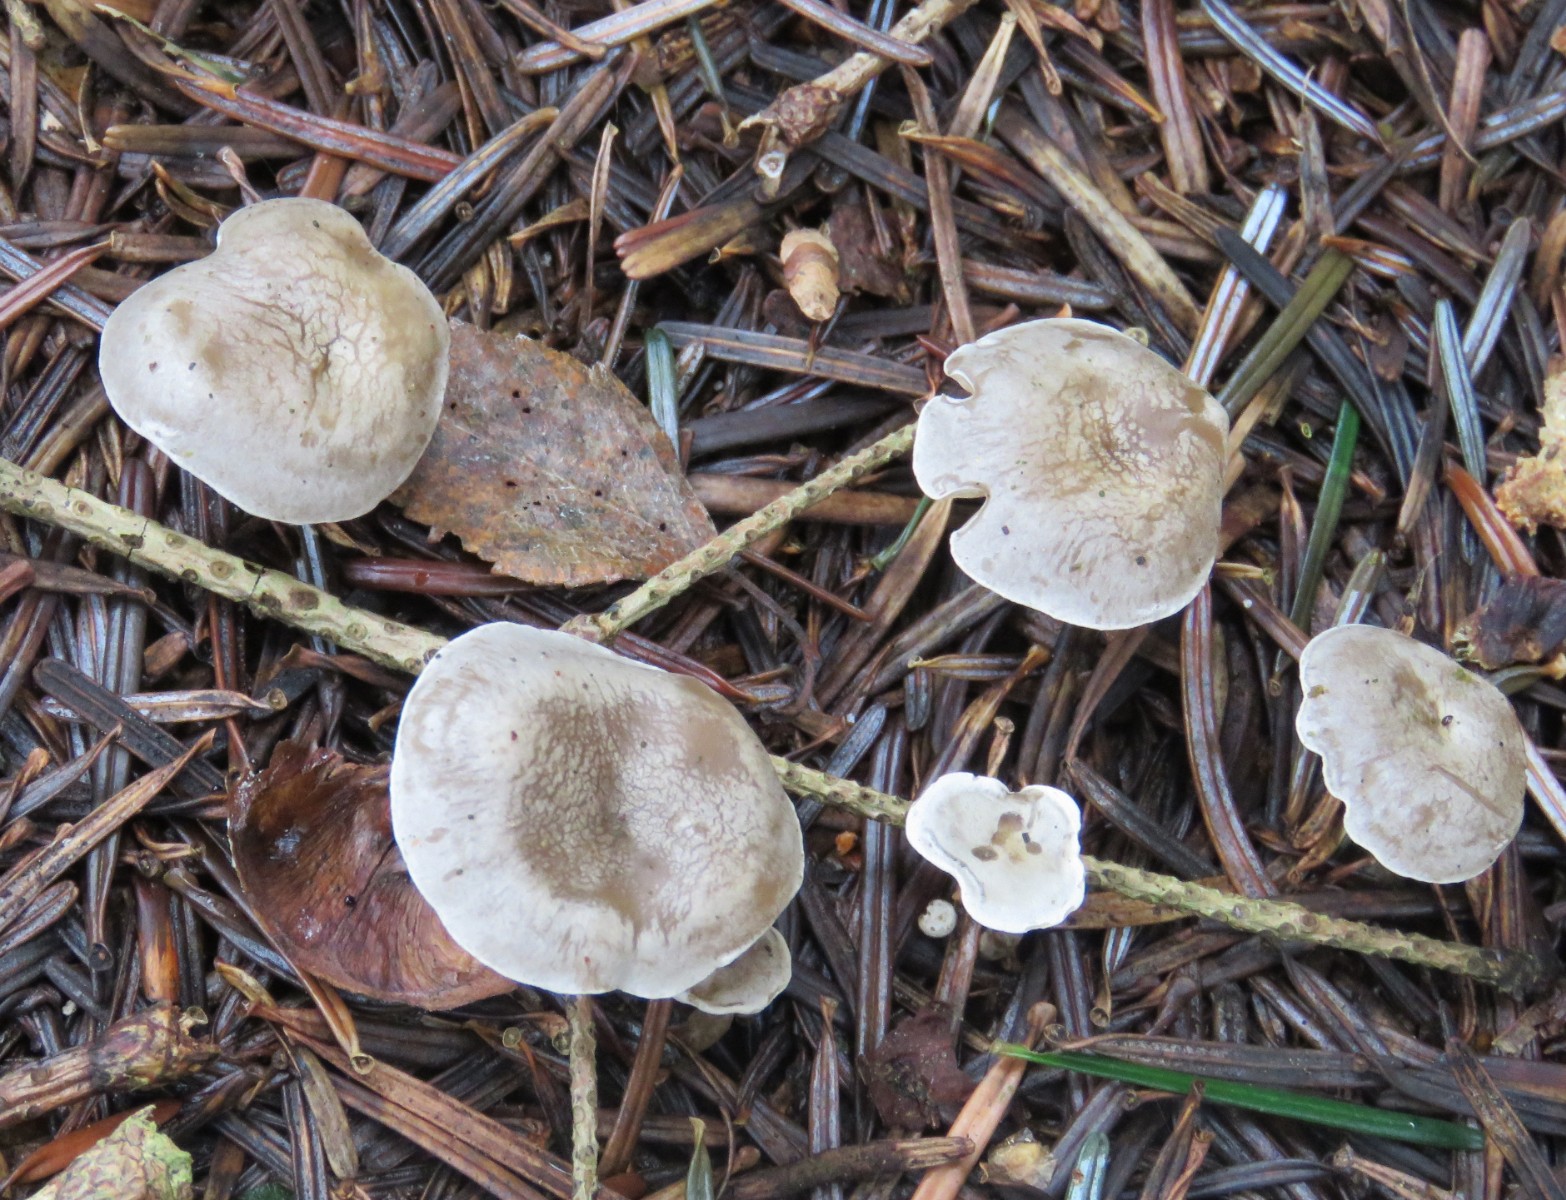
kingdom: Fungi
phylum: Basidiomycota
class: Agaricomycetes
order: Agaricales
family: Tricholomataceae
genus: Clitocybe
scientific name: Clitocybe
